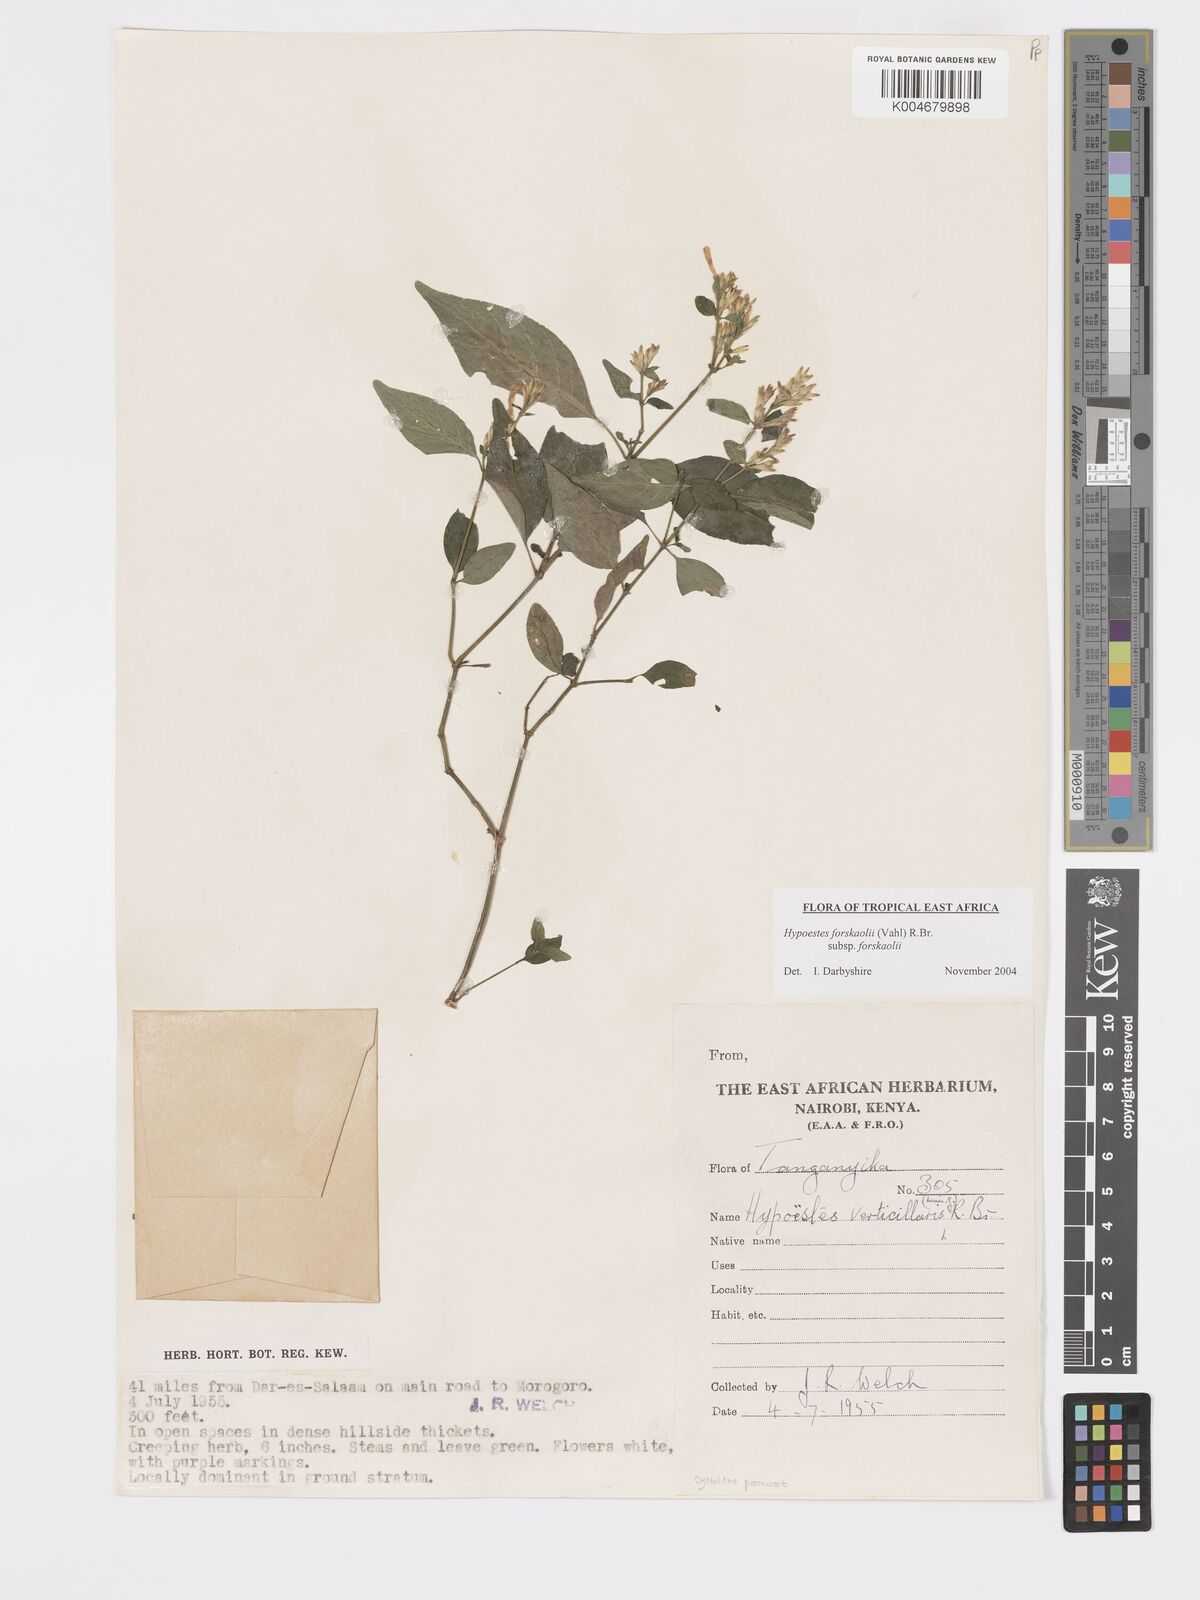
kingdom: Plantae
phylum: Tracheophyta
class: Magnoliopsida
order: Lamiales
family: Acanthaceae
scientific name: Acanthaceae
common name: Acanthaceae
